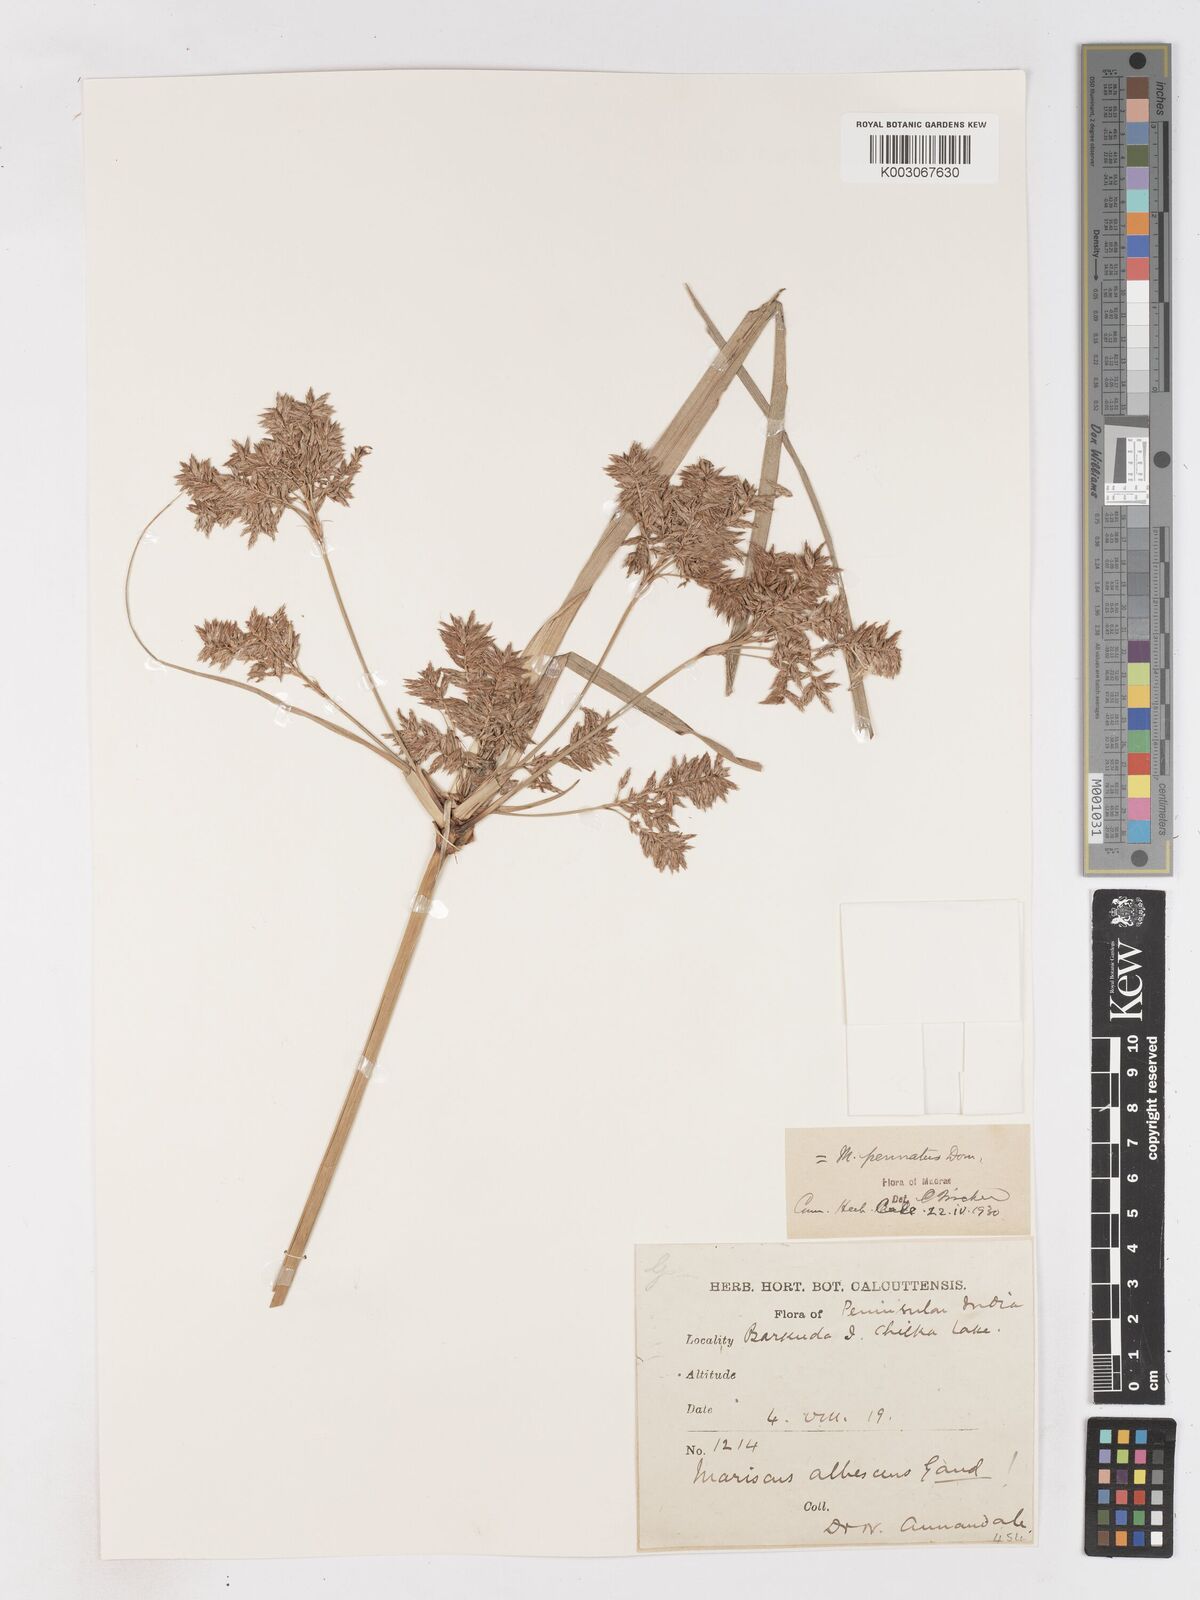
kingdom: Plantae
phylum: Tracheophyta
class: Liliopsida
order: Poales
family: Cyperaceae
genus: Cyperus
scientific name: Cyperus javanicus
